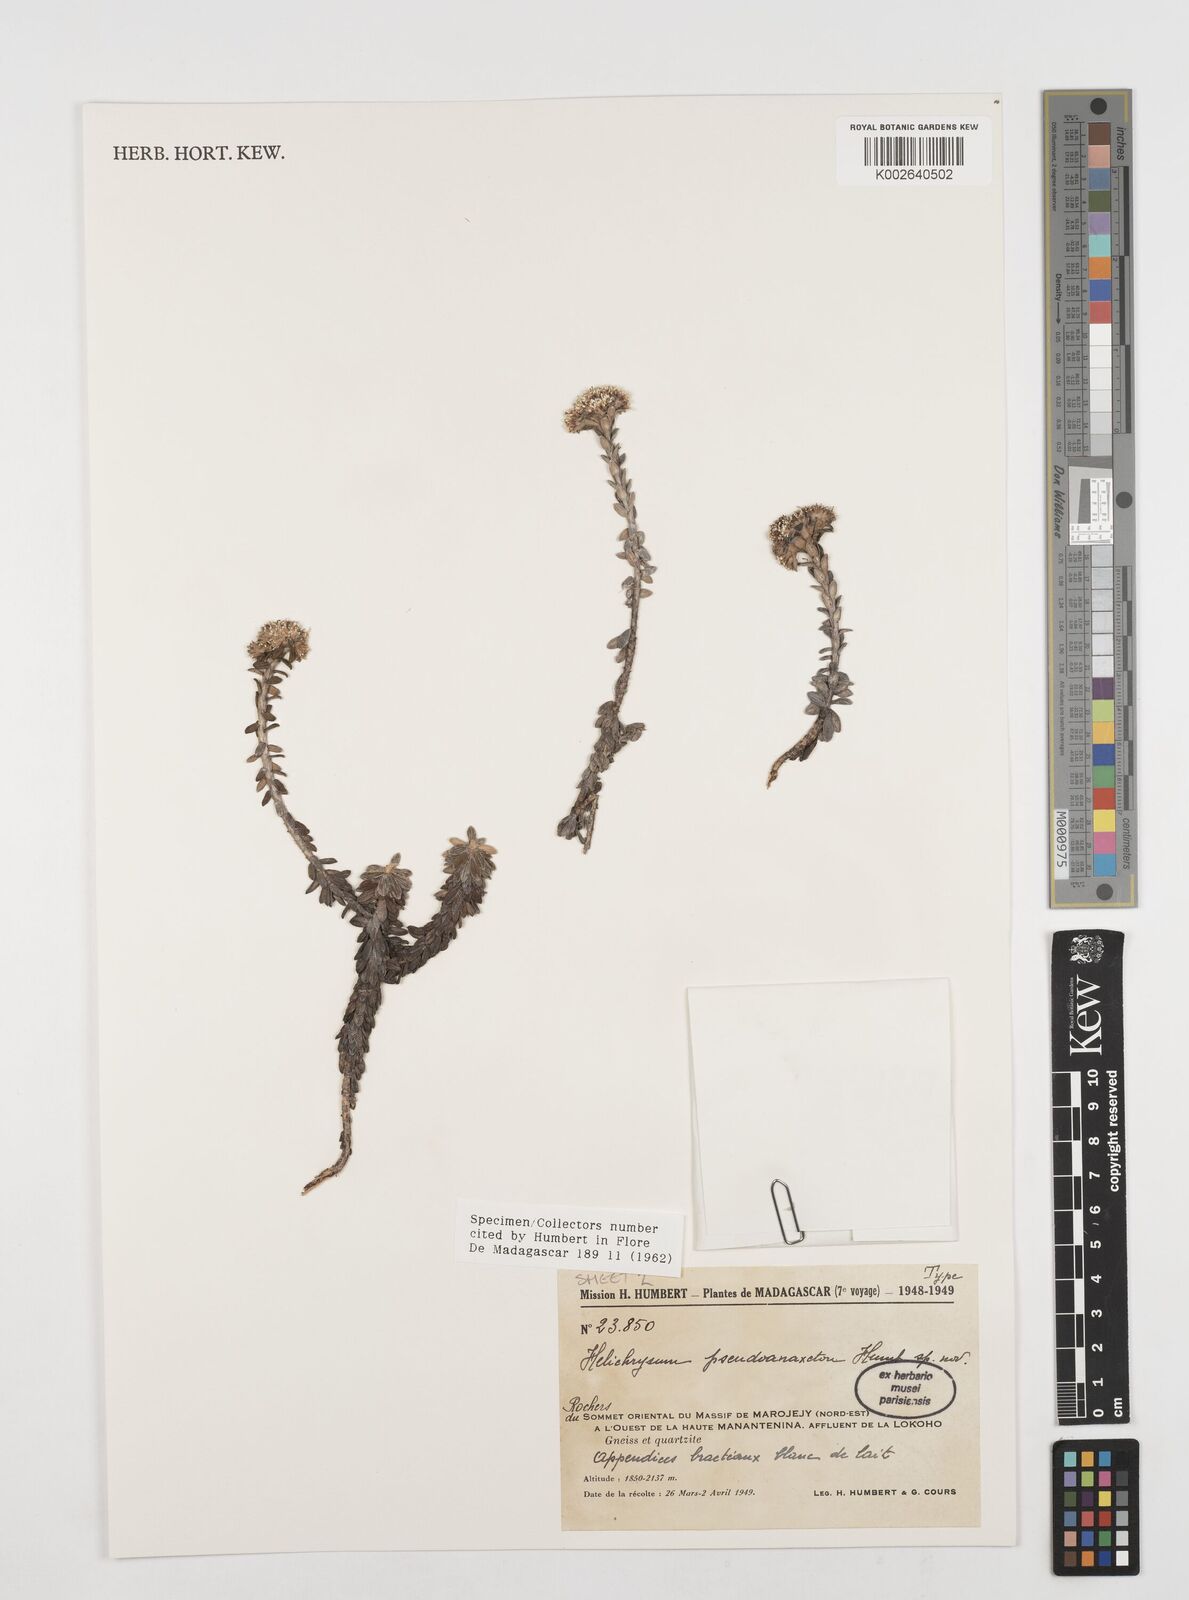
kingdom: Plantae
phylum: Tracheophyta
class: Magnoliopsida
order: Asterales
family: Asteraceae
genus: Helichrysum
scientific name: Helichrysum pseudoanaxeton
